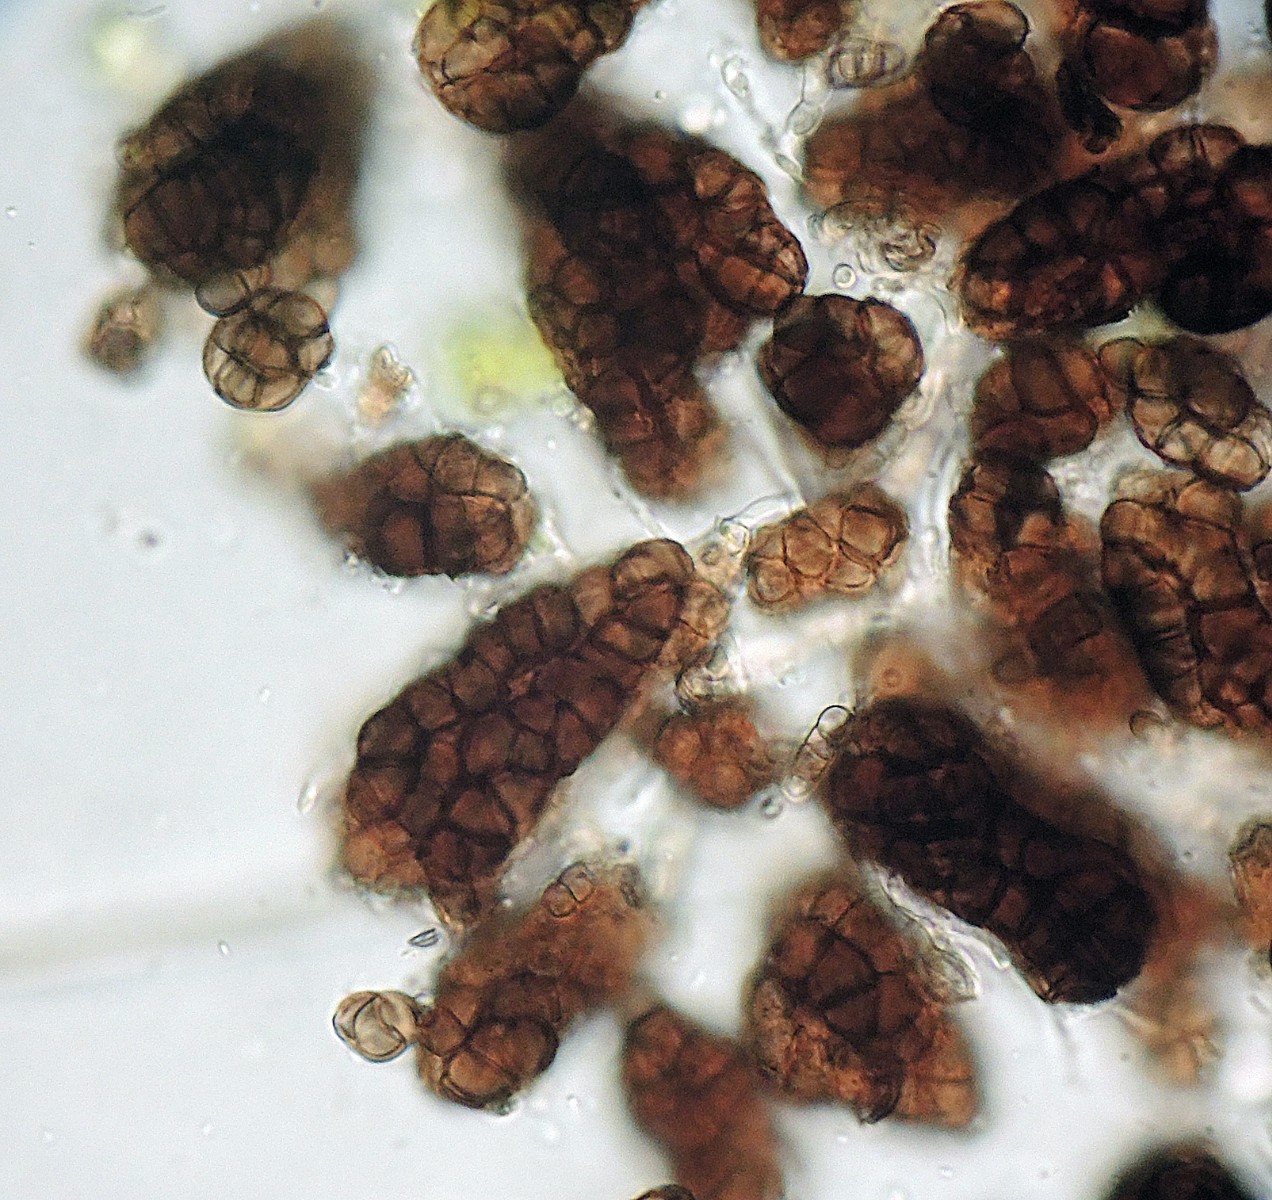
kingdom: Fungi
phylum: Ascomycota
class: Dothideomycetes
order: Dothideales
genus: Monodictys
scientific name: Monodictys cellulosa
